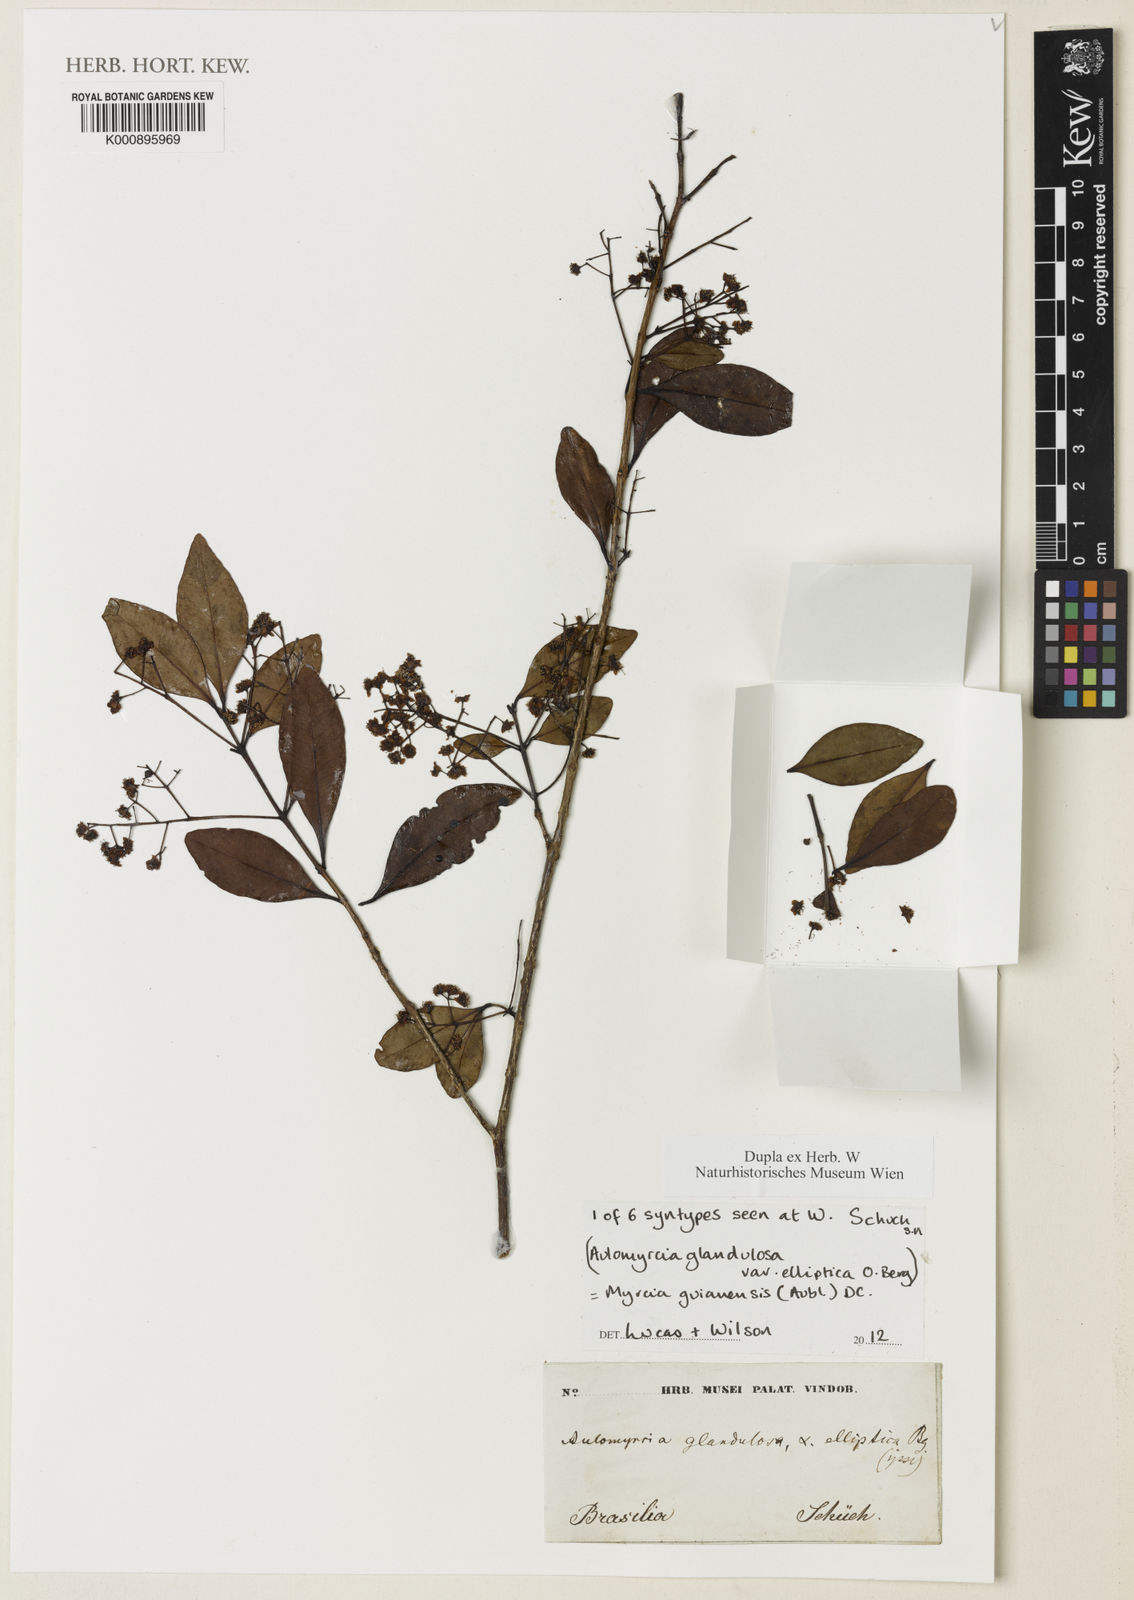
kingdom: Plantae
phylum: Tracheophyta
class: Magnoliopsida
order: Myrtales
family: Myrtaceae
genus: Myrcia
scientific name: Myrcia guianensis
